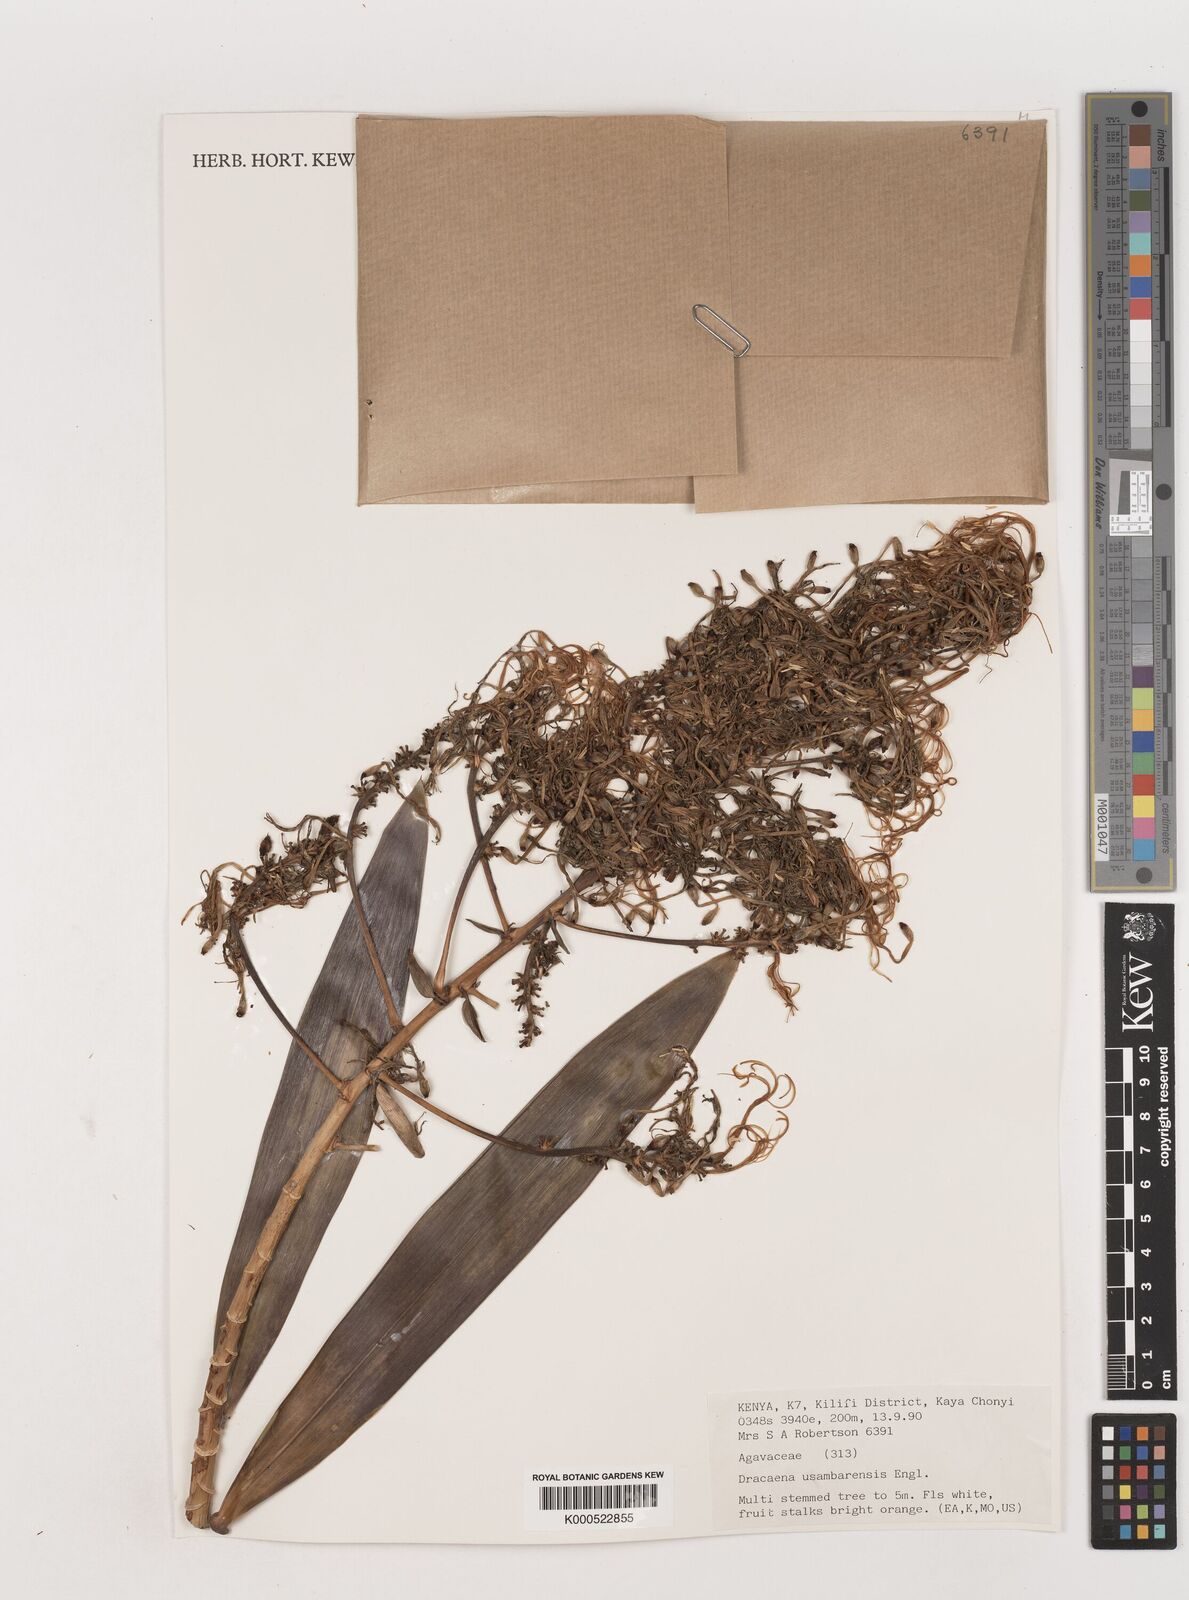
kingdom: Plantae
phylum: Tracheophyta
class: Liliopsida
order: Asparagales
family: Asparagaceae
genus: Dracaena
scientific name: Dracaena usambarensis
